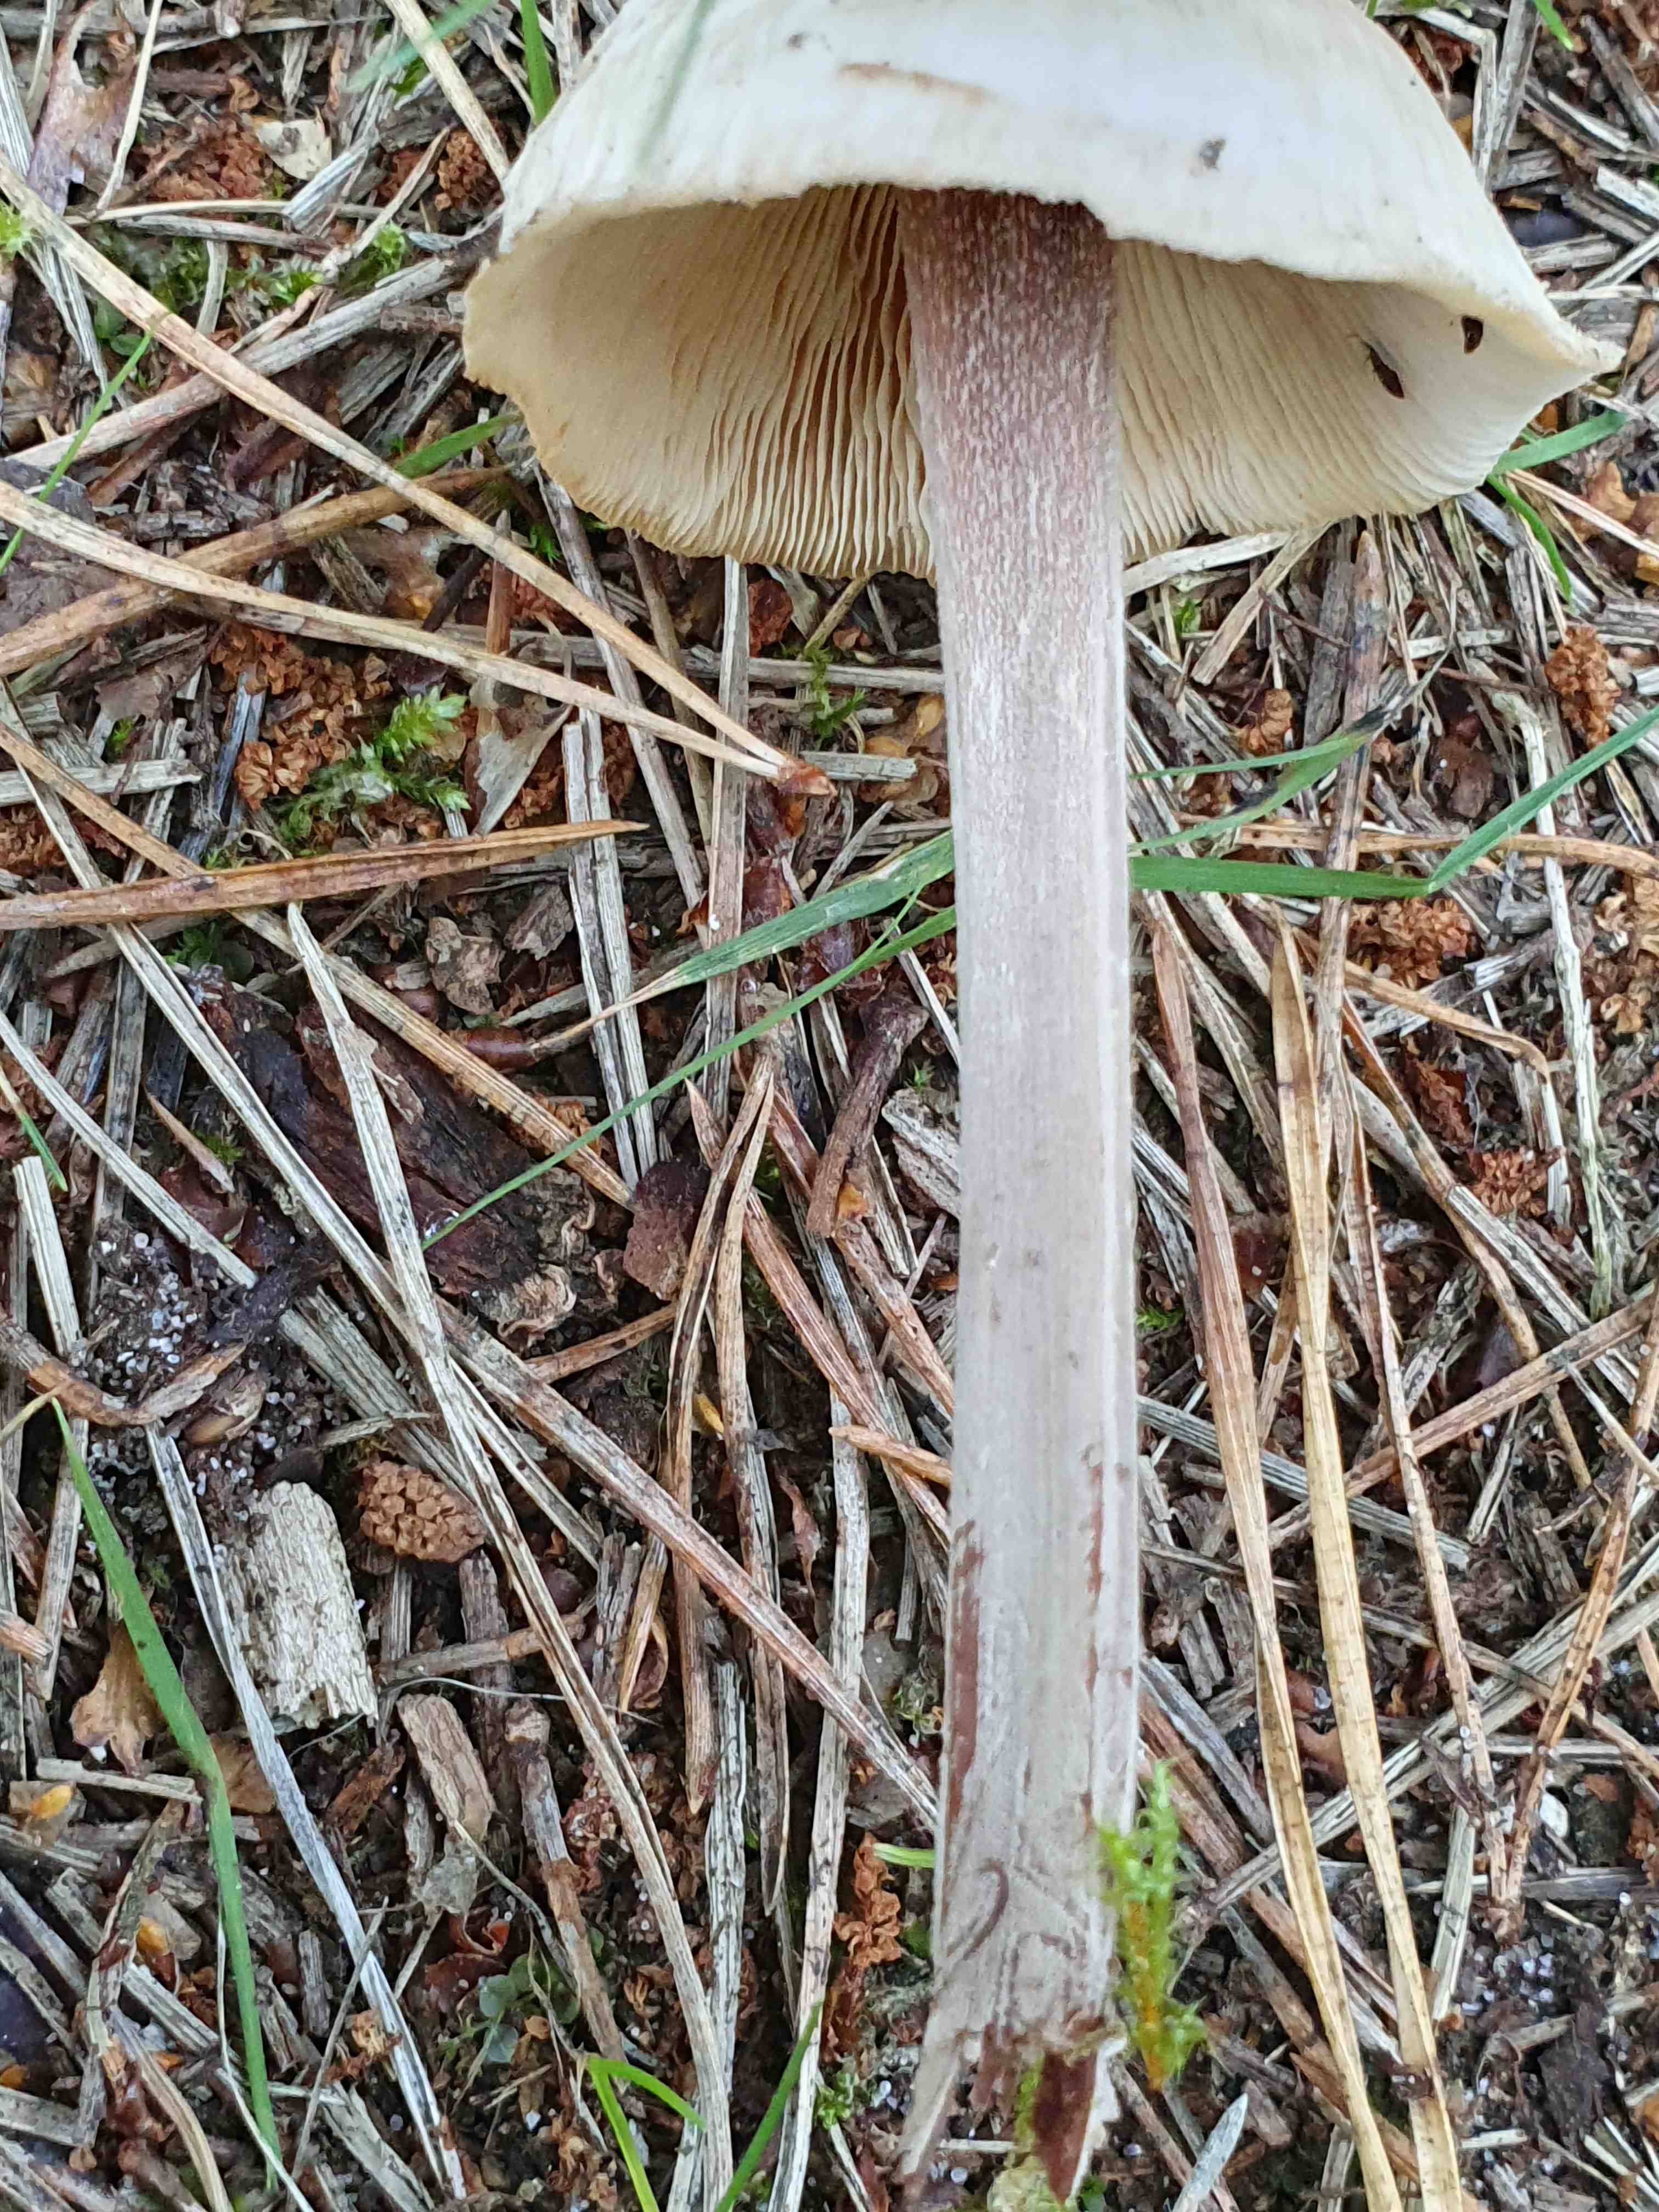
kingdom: Fungi
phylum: Basidiomycota
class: Agaricomycetes
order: Agaricales
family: Omphalotaceae
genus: Collybiopsis
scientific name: Collybiopsis confluens
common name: knippe-fladhat
